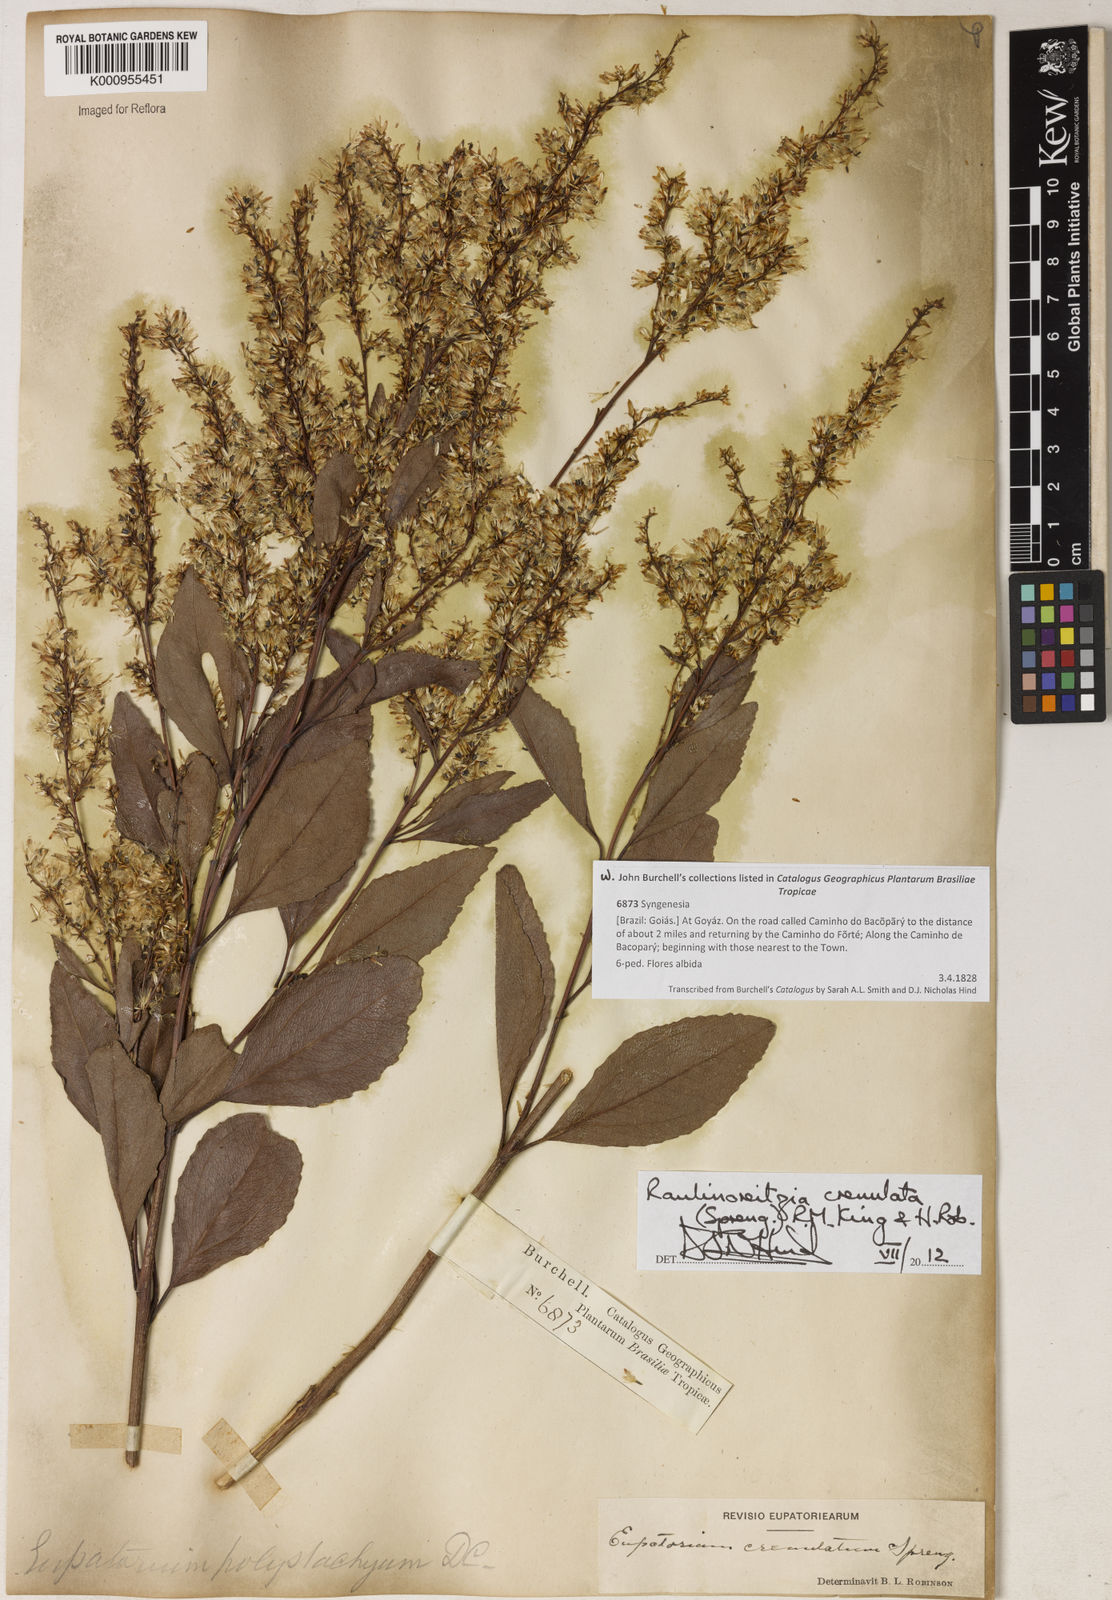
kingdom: Plantae
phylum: Tracheophyta
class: Magnoliopsida
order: Asterales
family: Asteraceae
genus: Raulinoreitzia
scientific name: Raulinoreitzia crenulata
